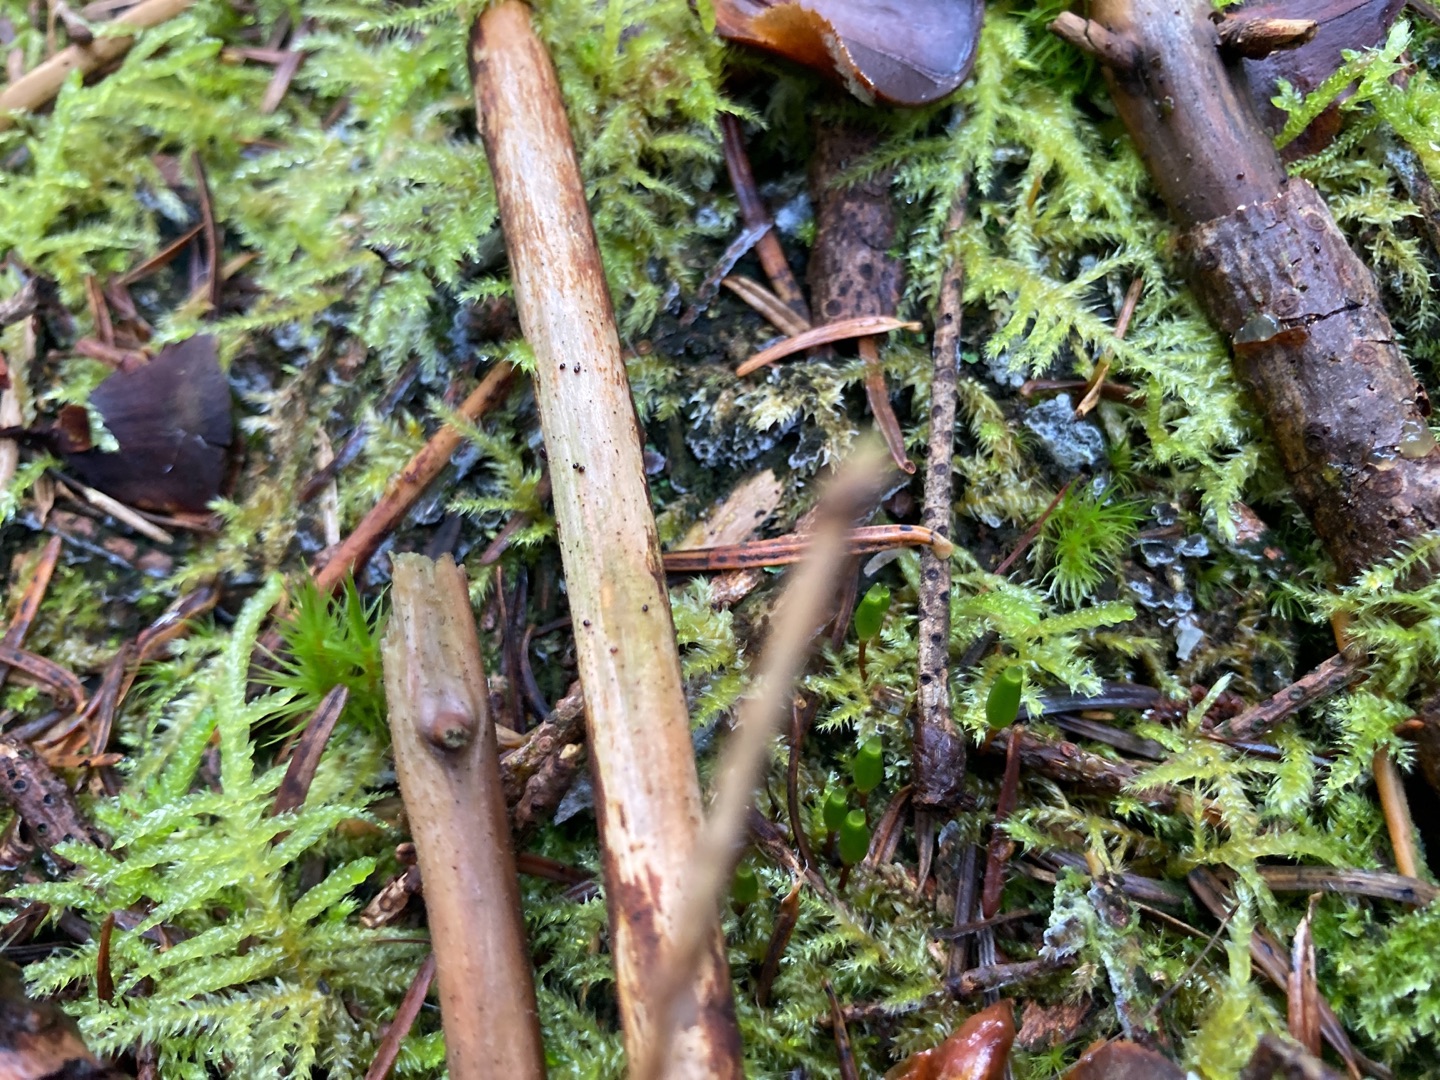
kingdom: Plantae
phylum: Bryophyta
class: Bryopsida
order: Buxbaumiales
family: Buxbaumiaceae
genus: Buxbaumia
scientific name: Buxbaumia viridis
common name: Grøn buxbaumia
